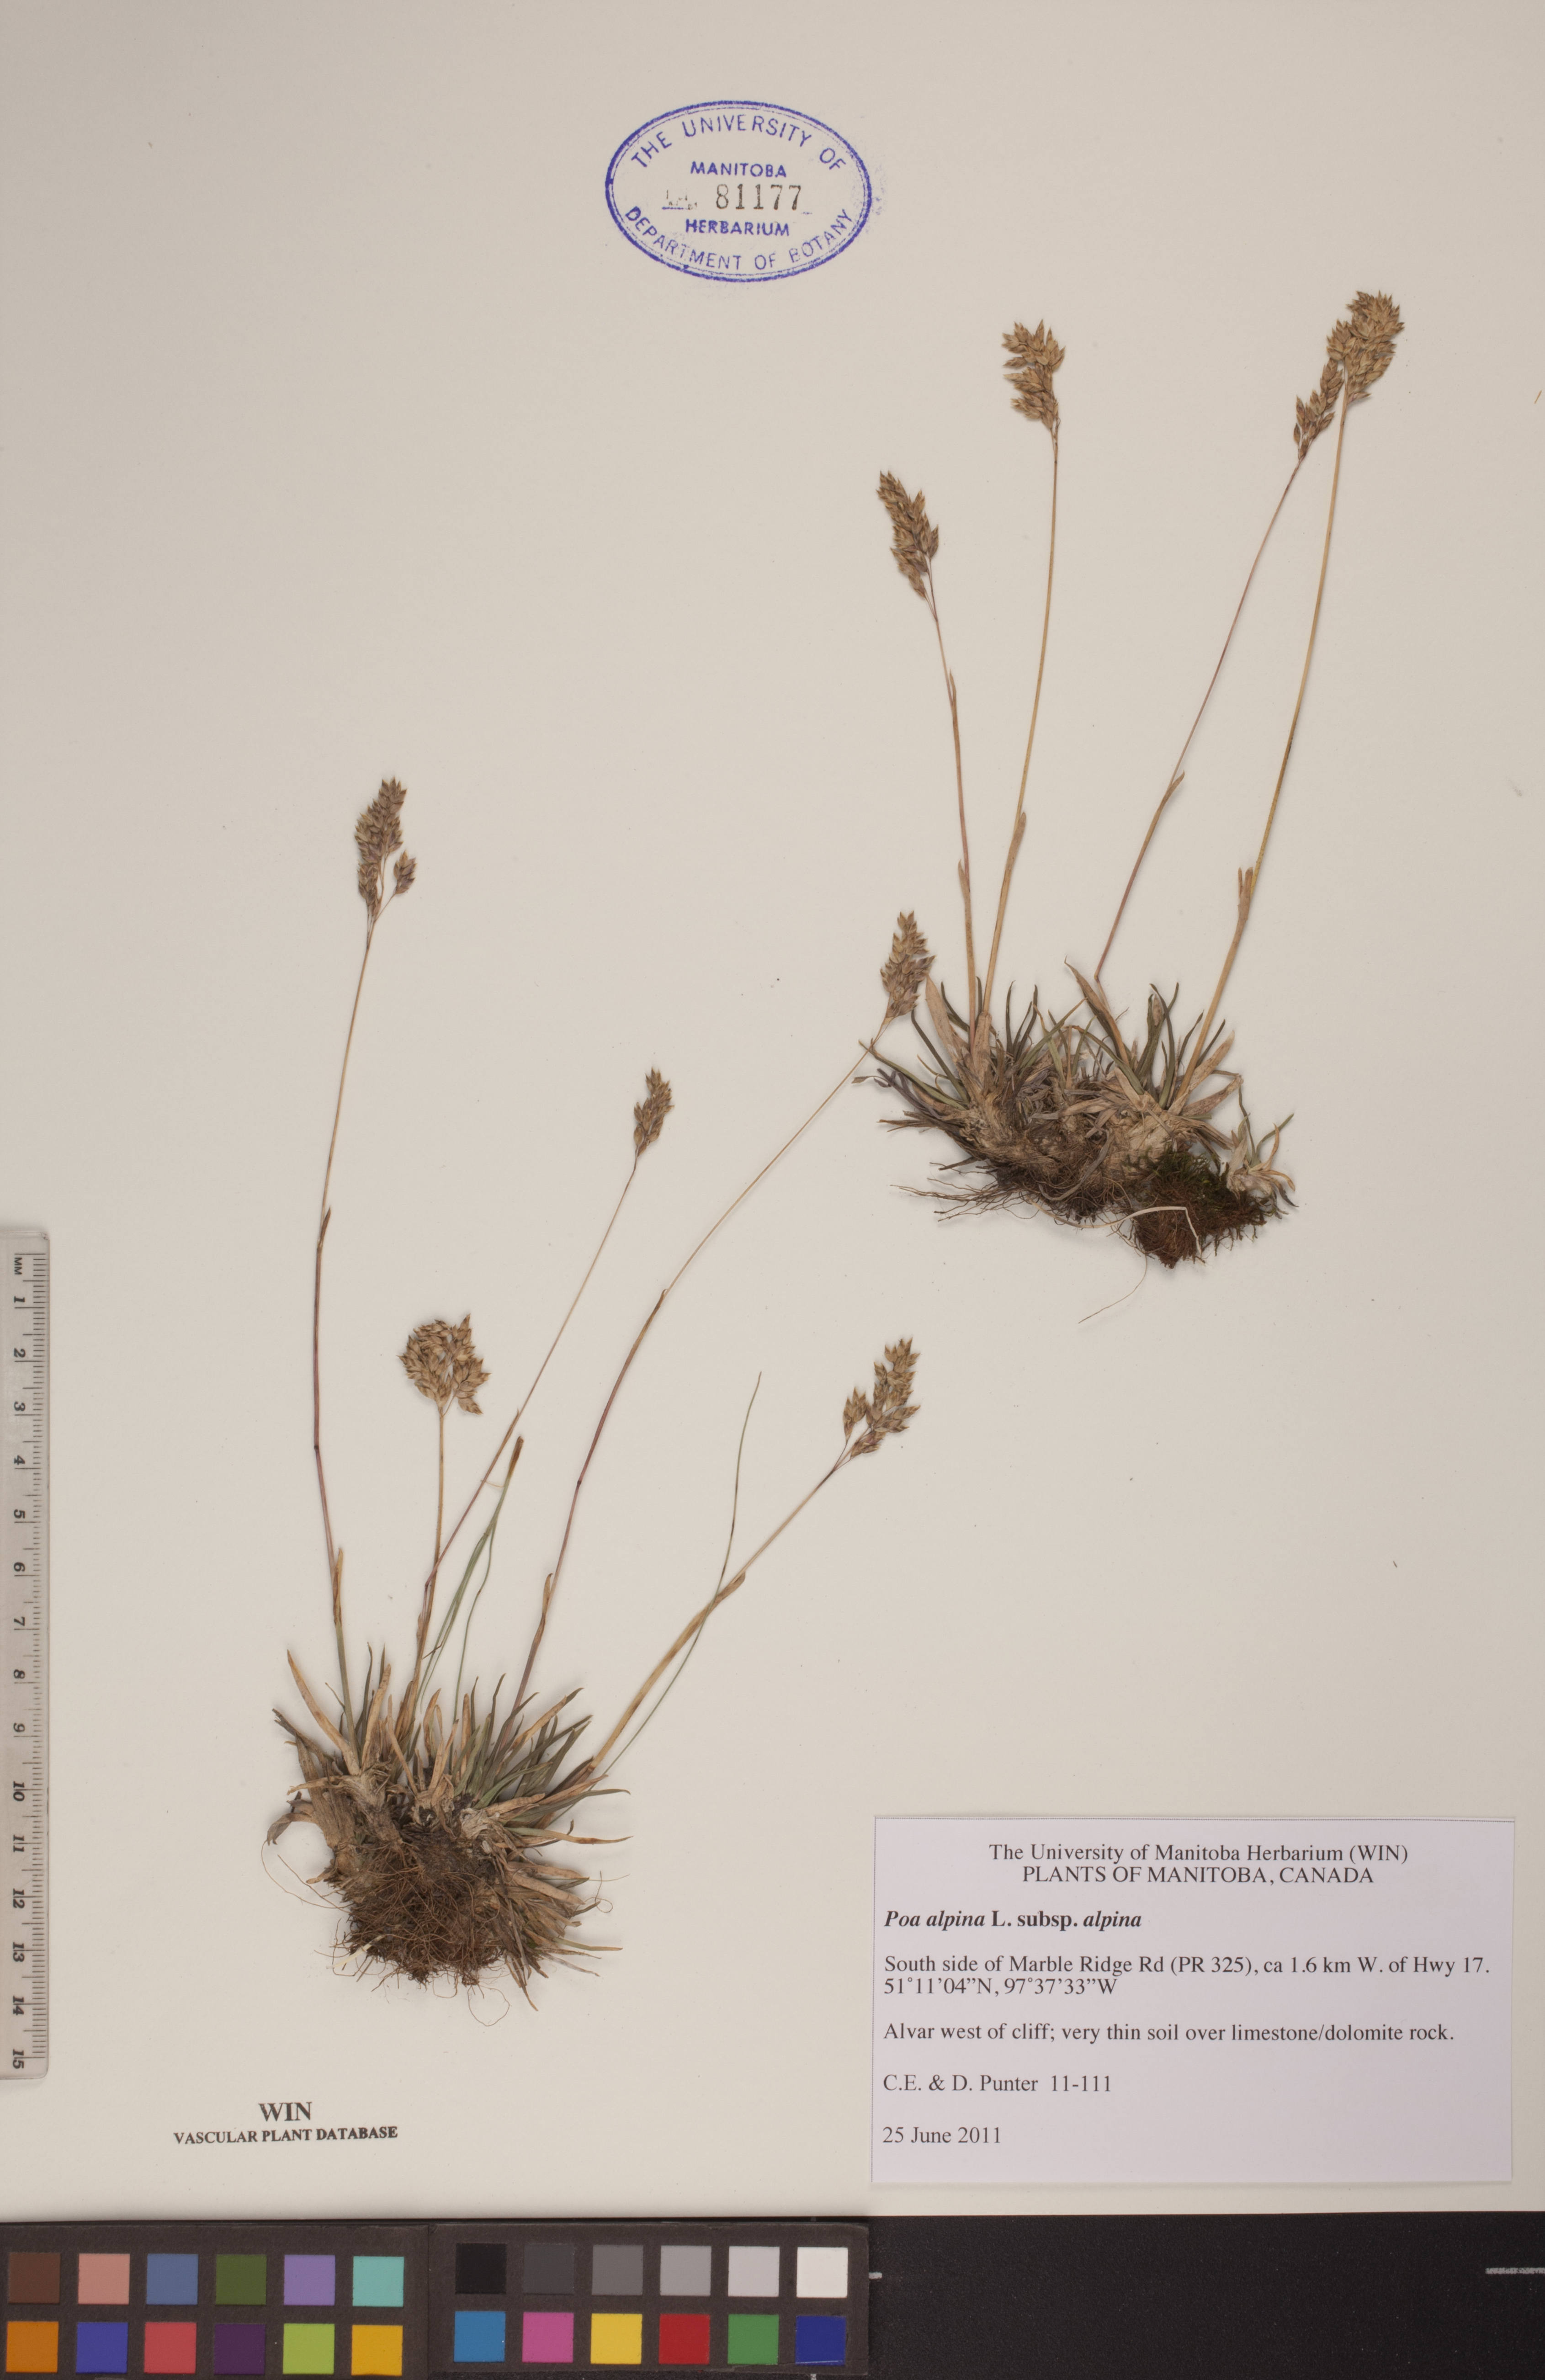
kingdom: Plantae
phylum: Tracheophyta
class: Liliopsida
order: Poales
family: Poaceae
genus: Poa
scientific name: Poa alpina
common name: Alpine bluegrass
